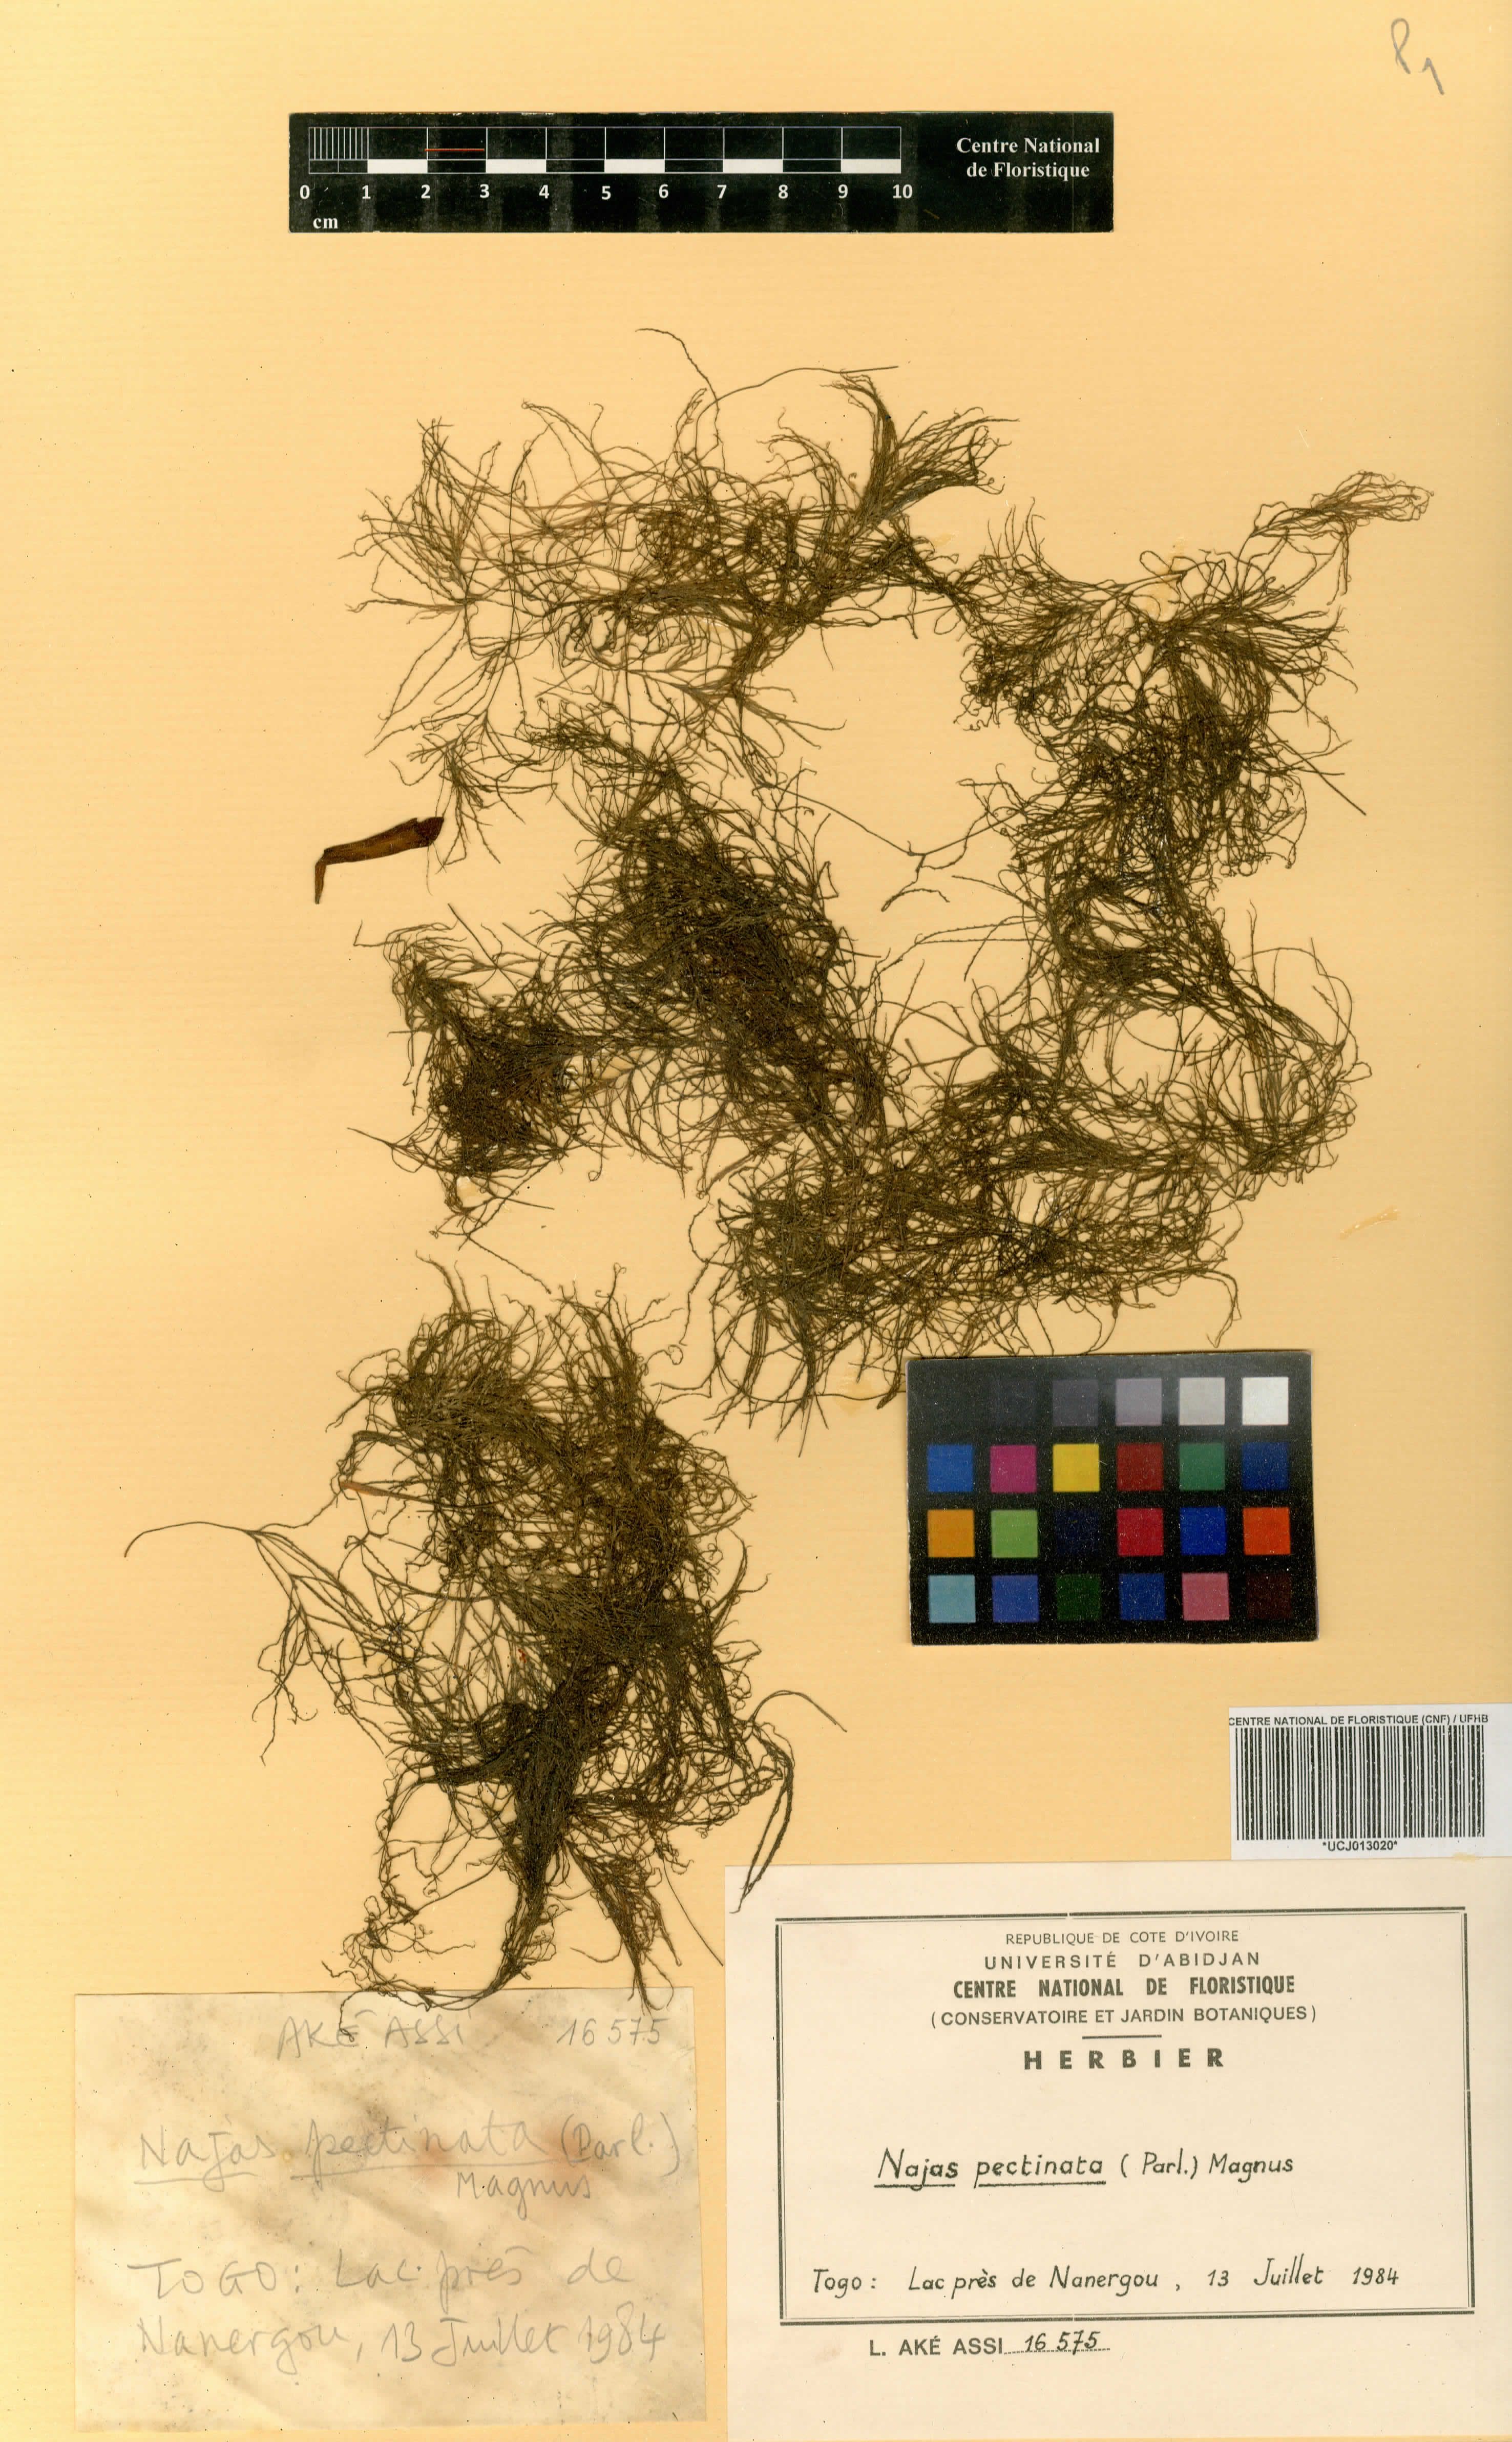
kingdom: Plantae
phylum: Tracheophyta
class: Liliopsida
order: Alismatales
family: Hydrocharitaceae
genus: Najas
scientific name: Najas pectinata
